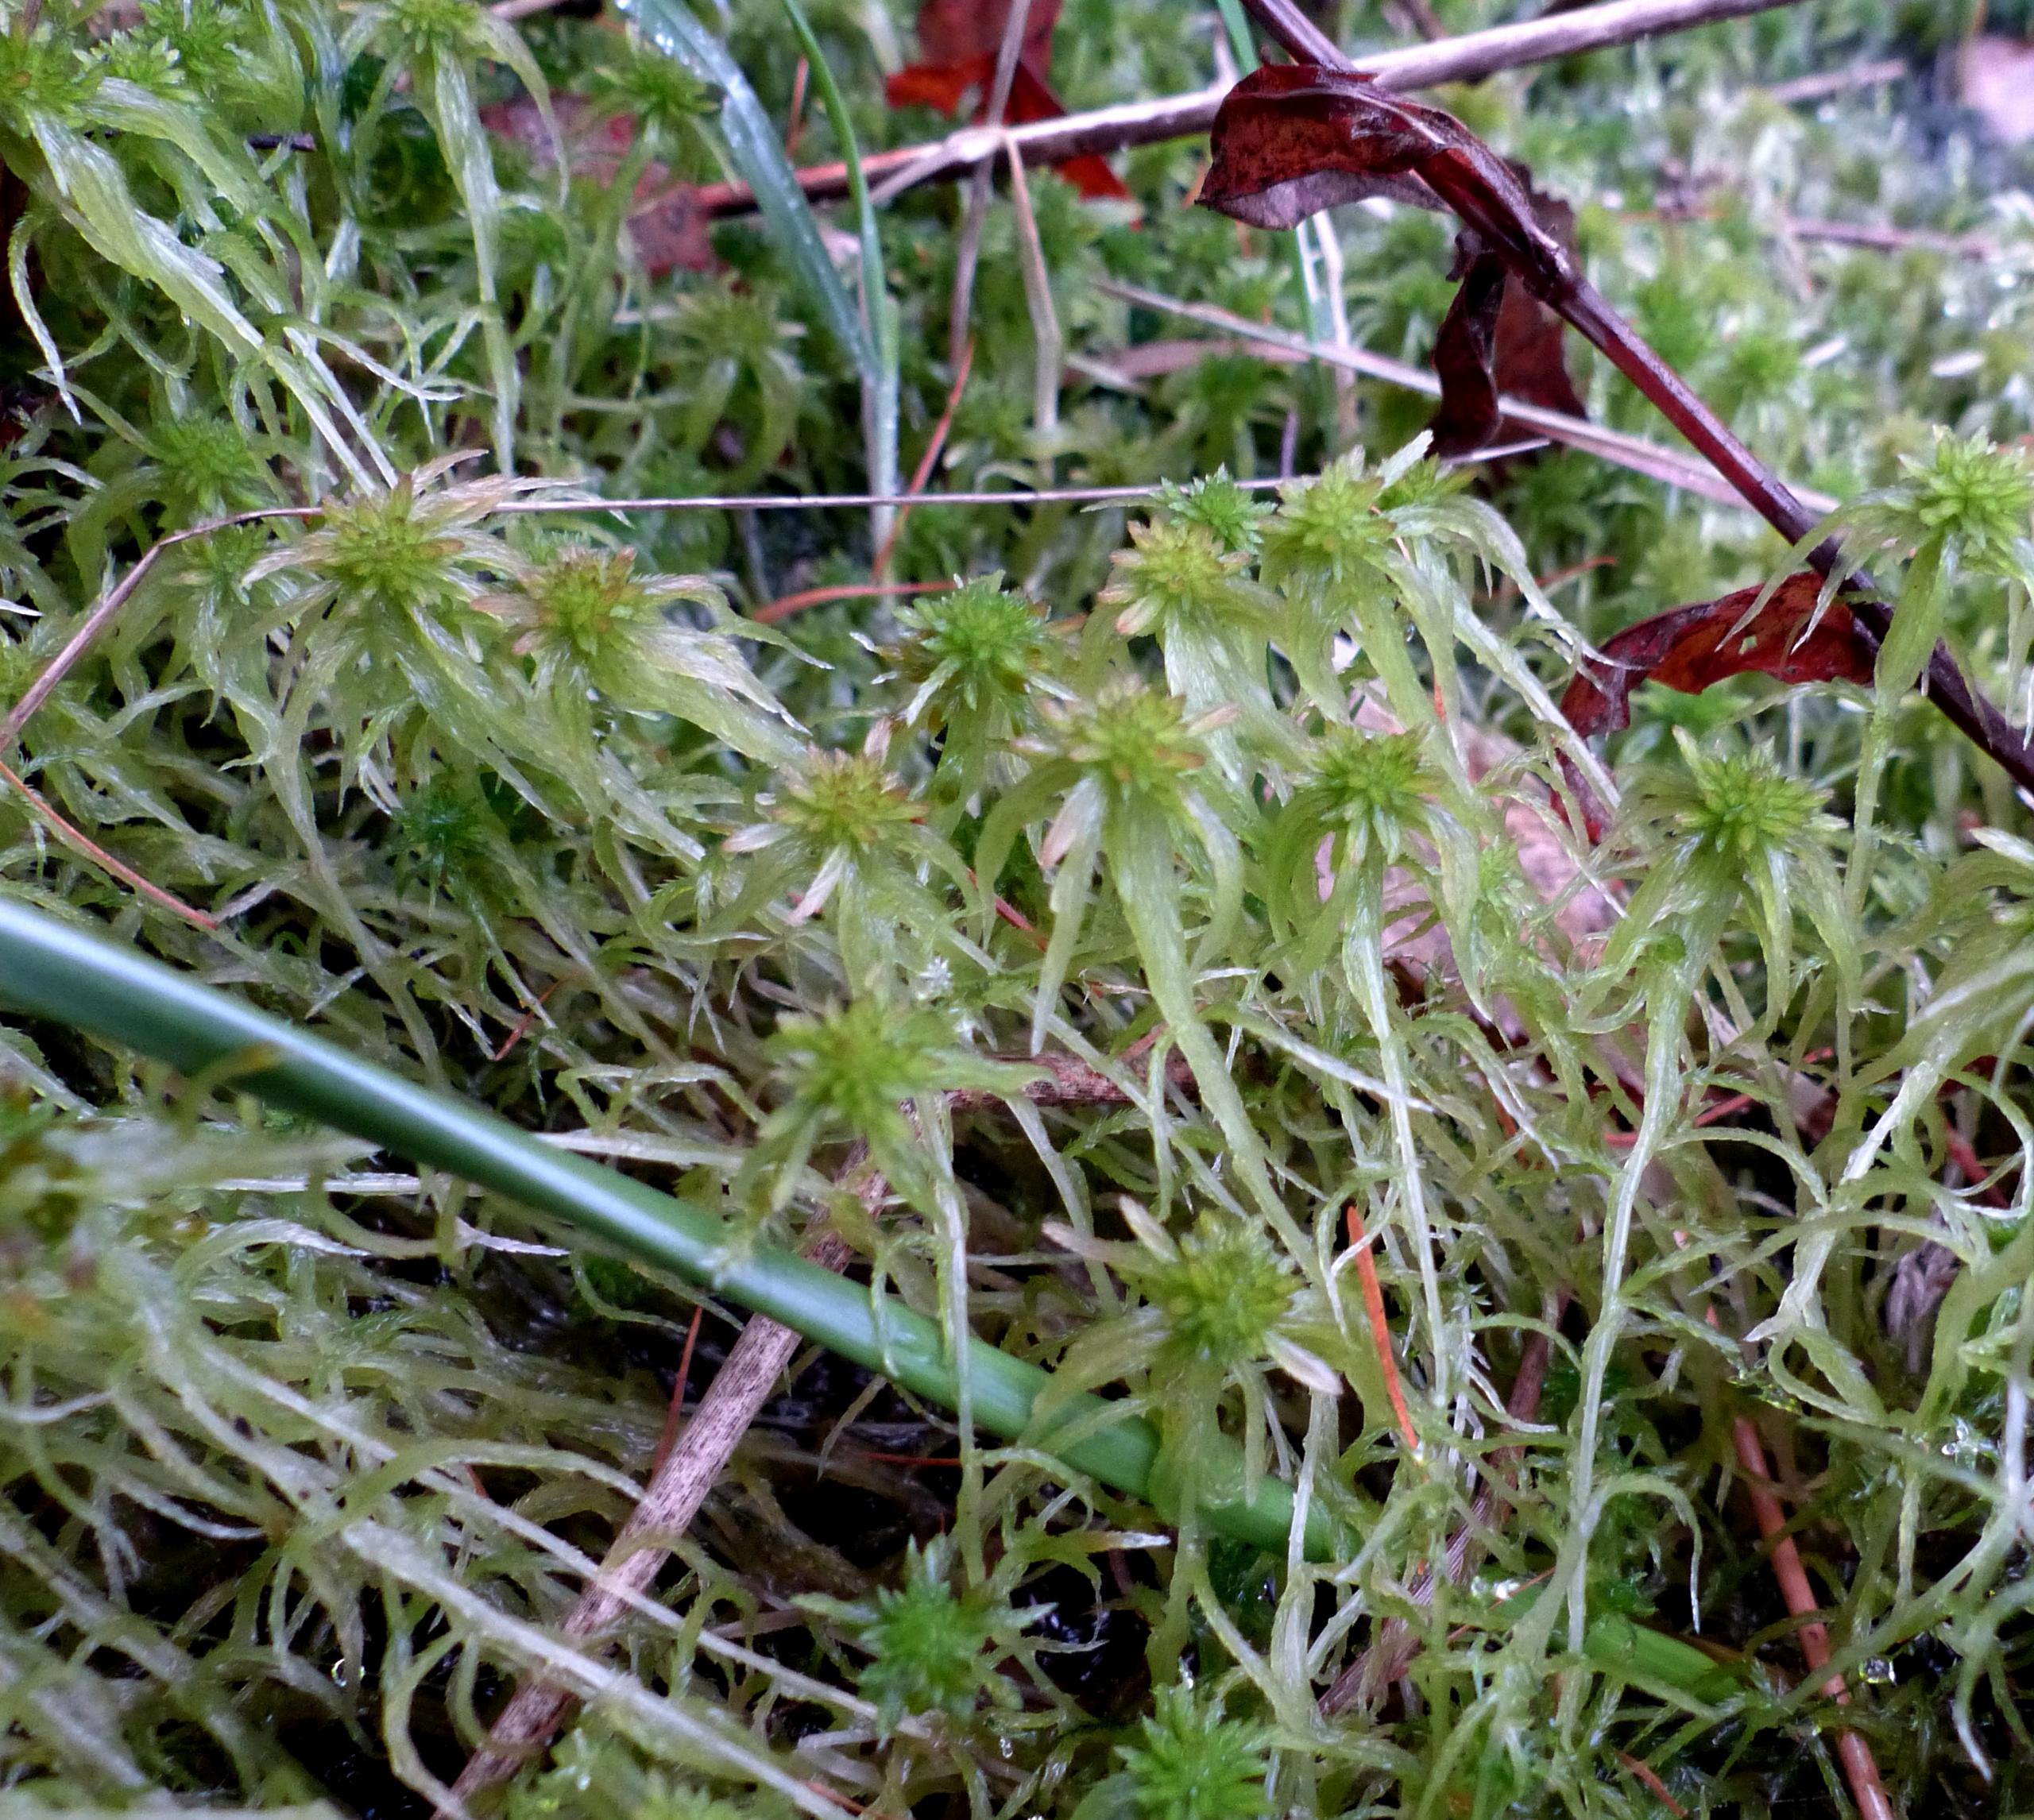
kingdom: Plantae
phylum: Bryophyta
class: Sphagnopsida
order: Sphagnales
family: Sphagnaceae
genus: Sphagnum
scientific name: Sphagnum fallax
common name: Brodspids-tørvemos
